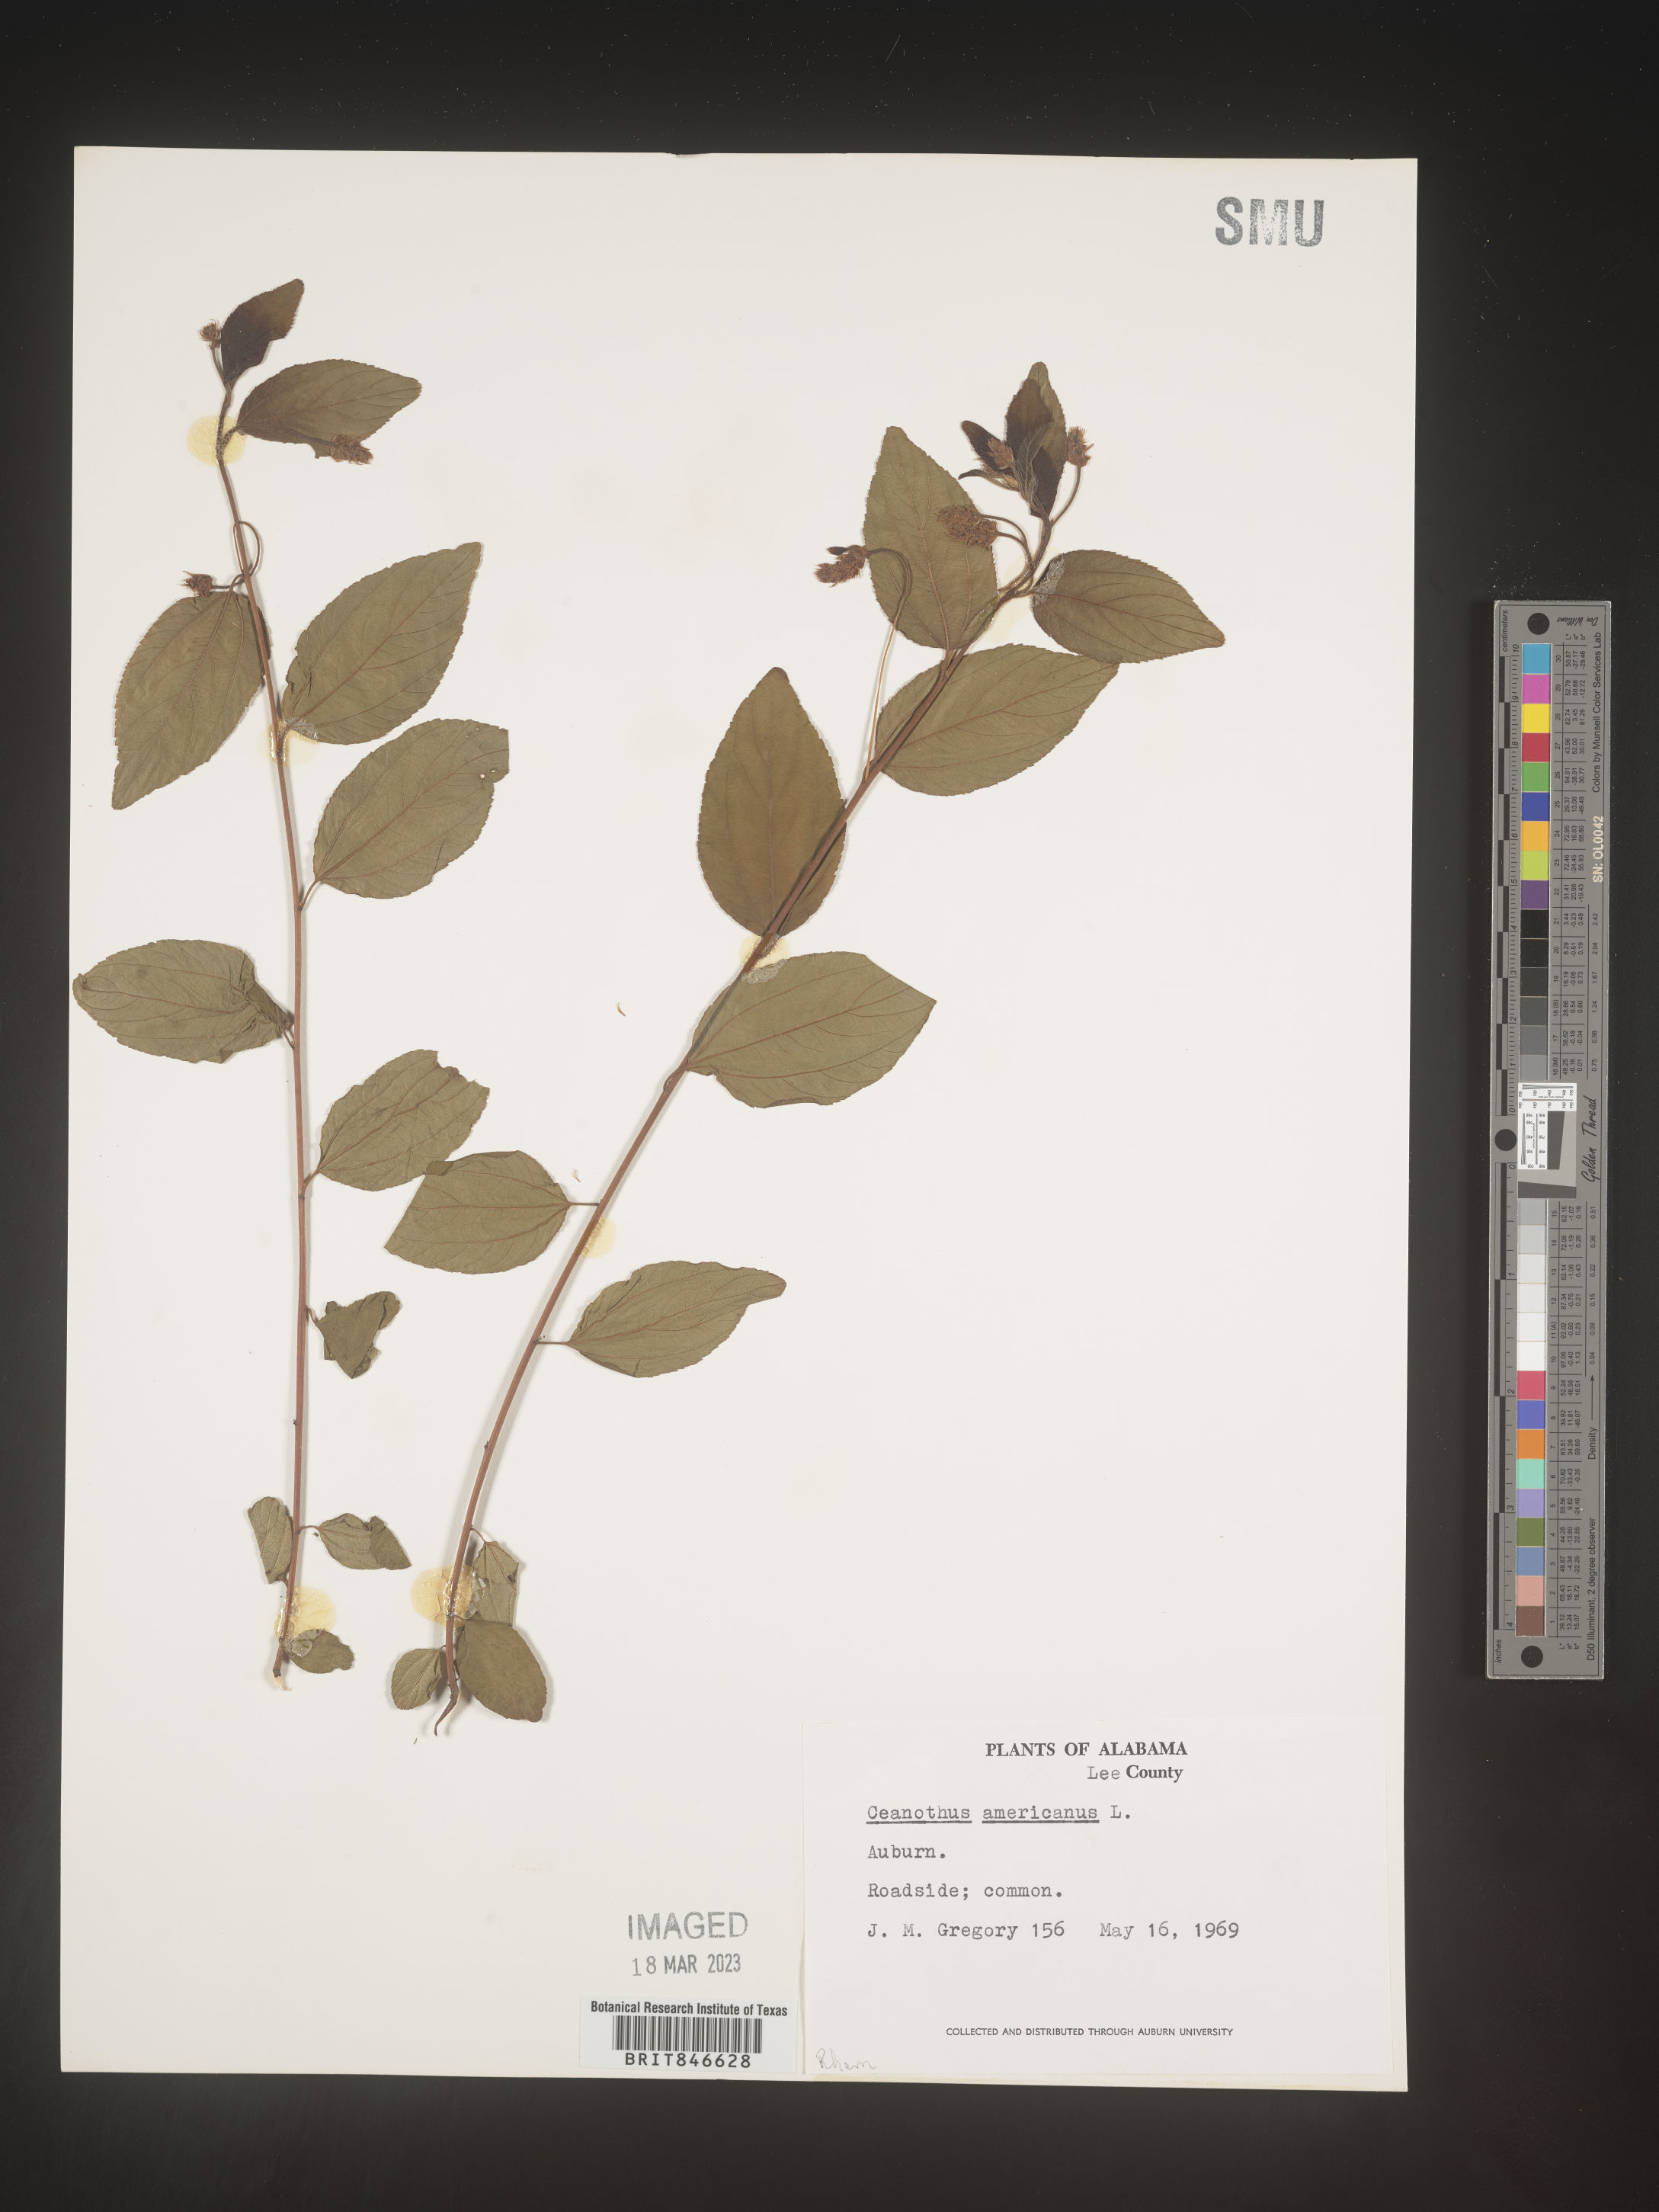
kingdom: Plantae
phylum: Tracheophyta
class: Magnoliopsida
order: Rosales
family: Rhamnaceae
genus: Ceanothus
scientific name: Ceanothus americanus
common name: Redroot
